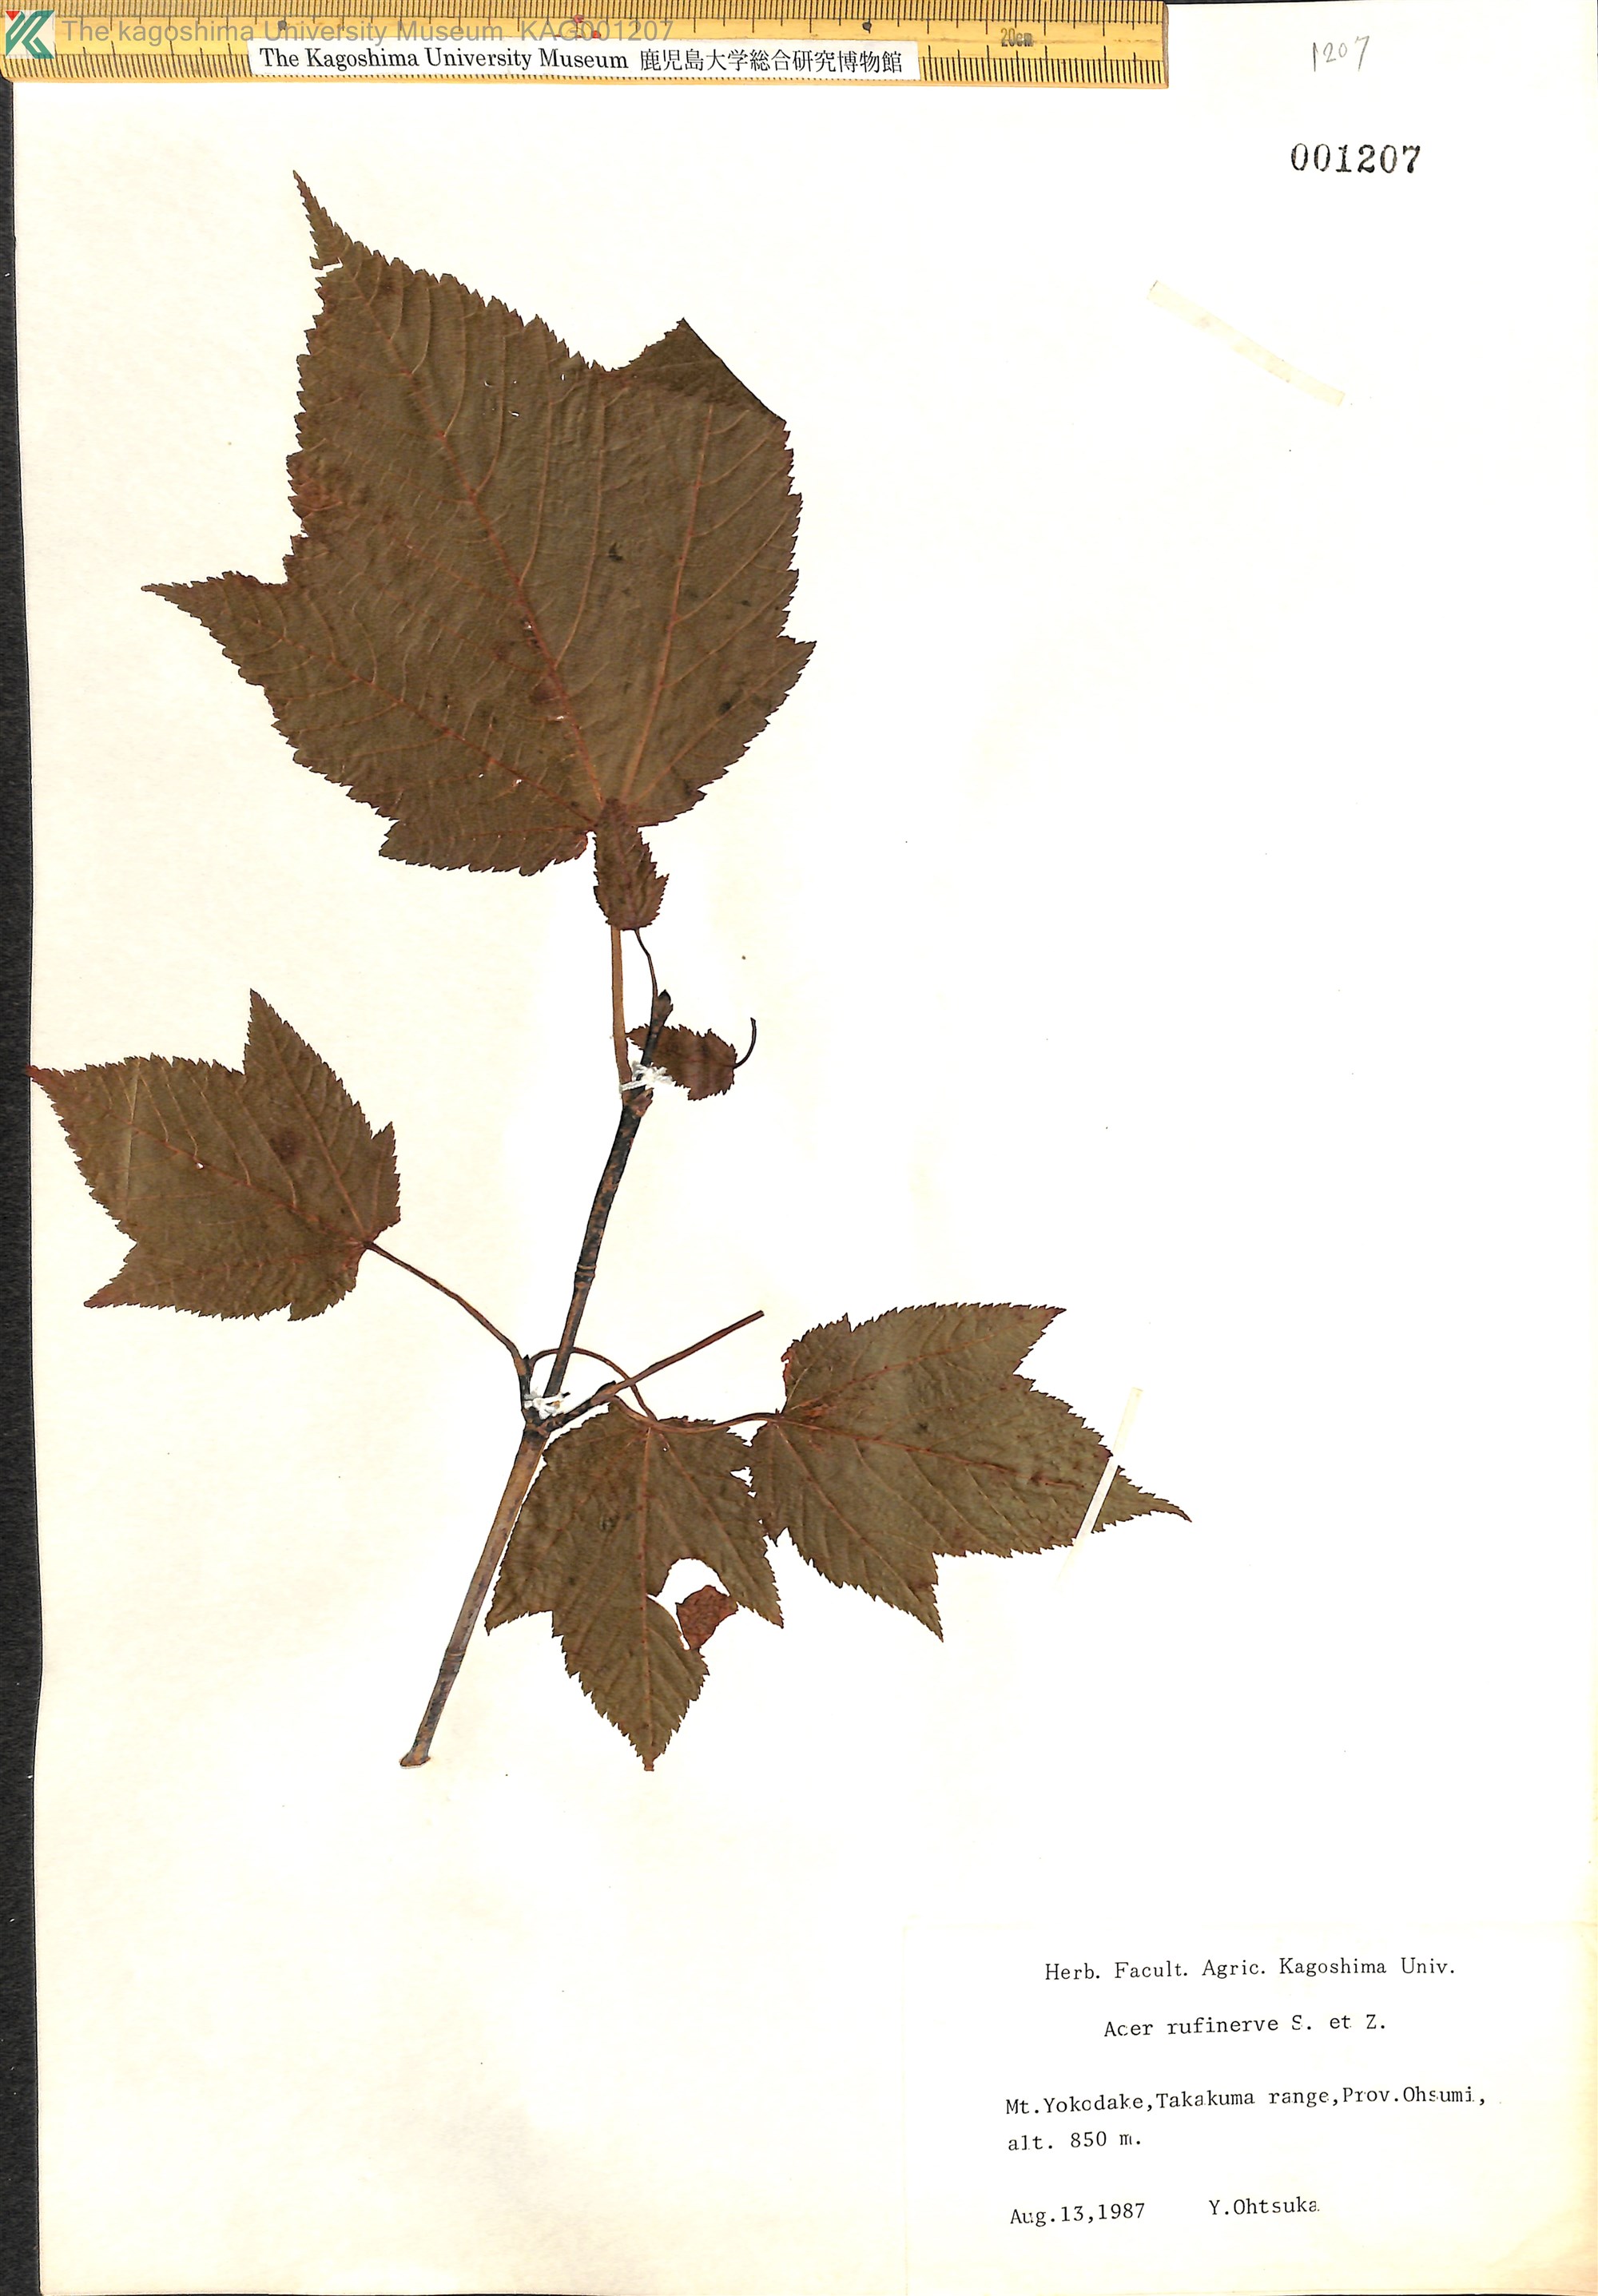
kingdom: Plantae
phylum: Tracheophyta
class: Magnoliopsida
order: Sapindales
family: Sapindaceae
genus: Acer
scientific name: Acer rufinerve
